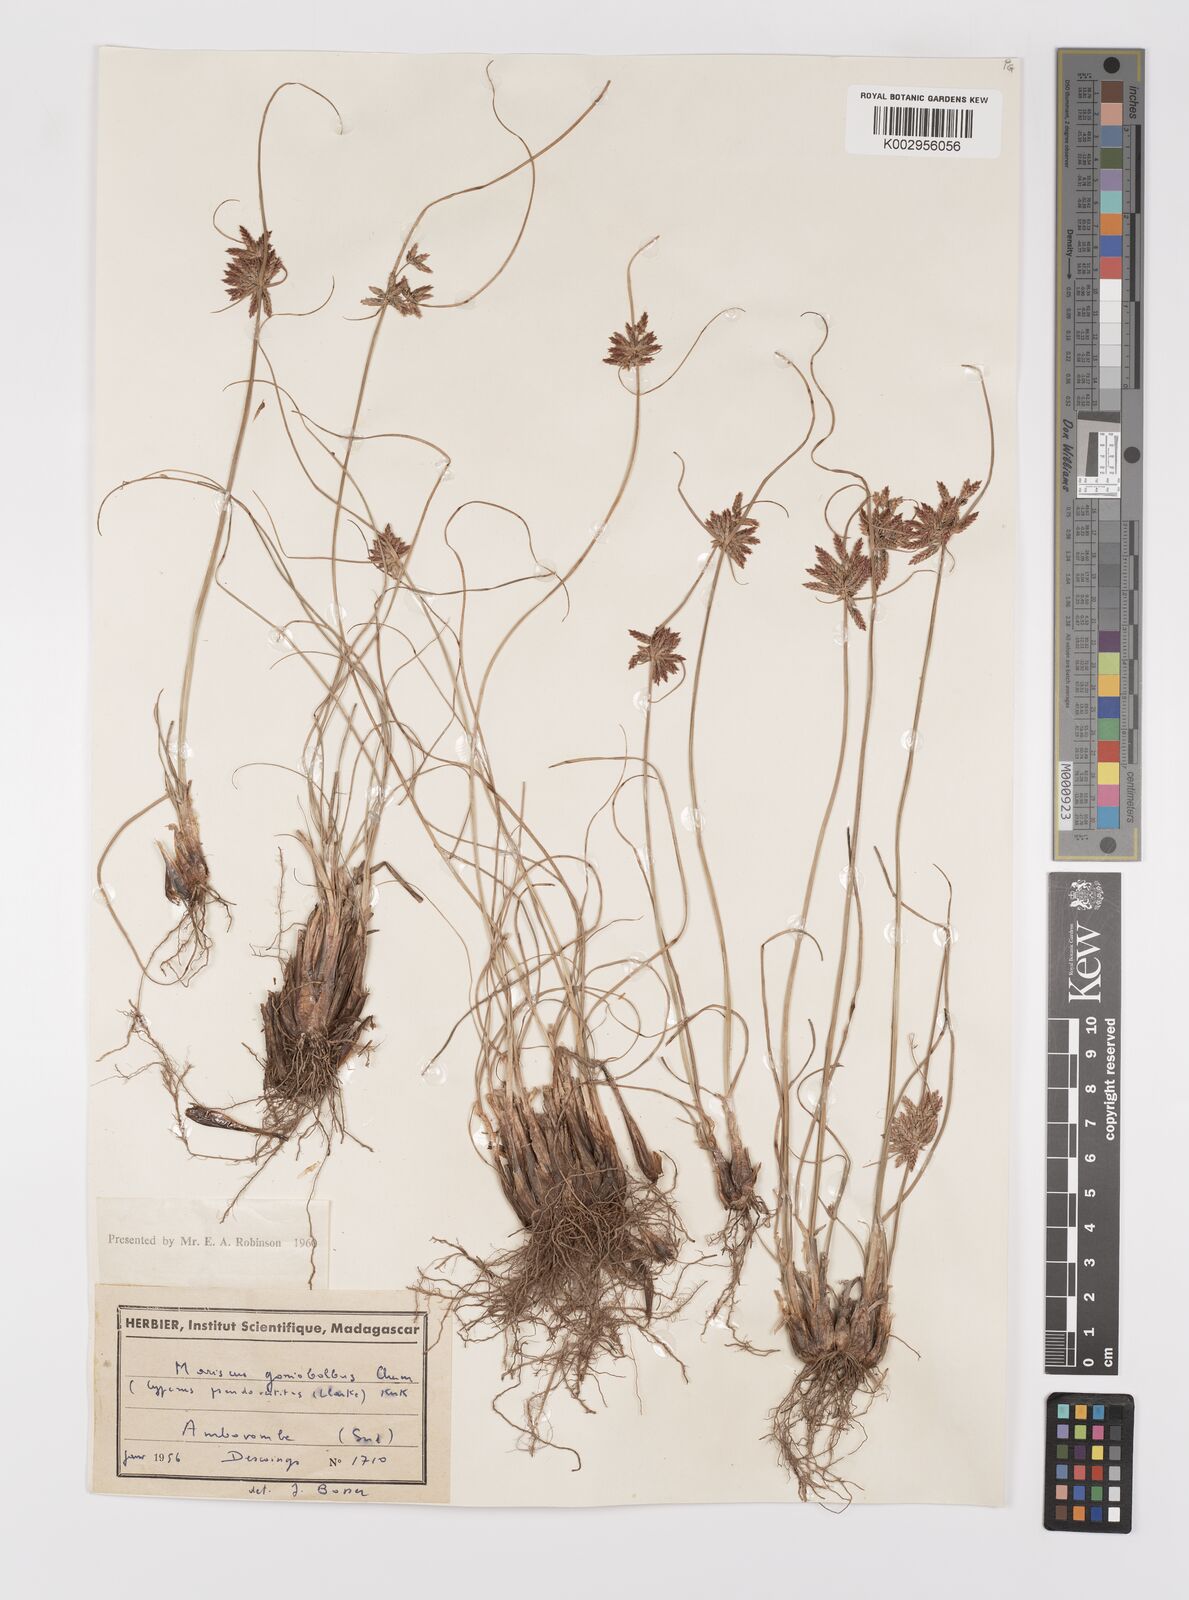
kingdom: Plantae
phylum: Tracheophyta
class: Liliopsida
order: Poales
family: Cyperaceae
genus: Cyperus
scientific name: Cyperus pseudovestitus
